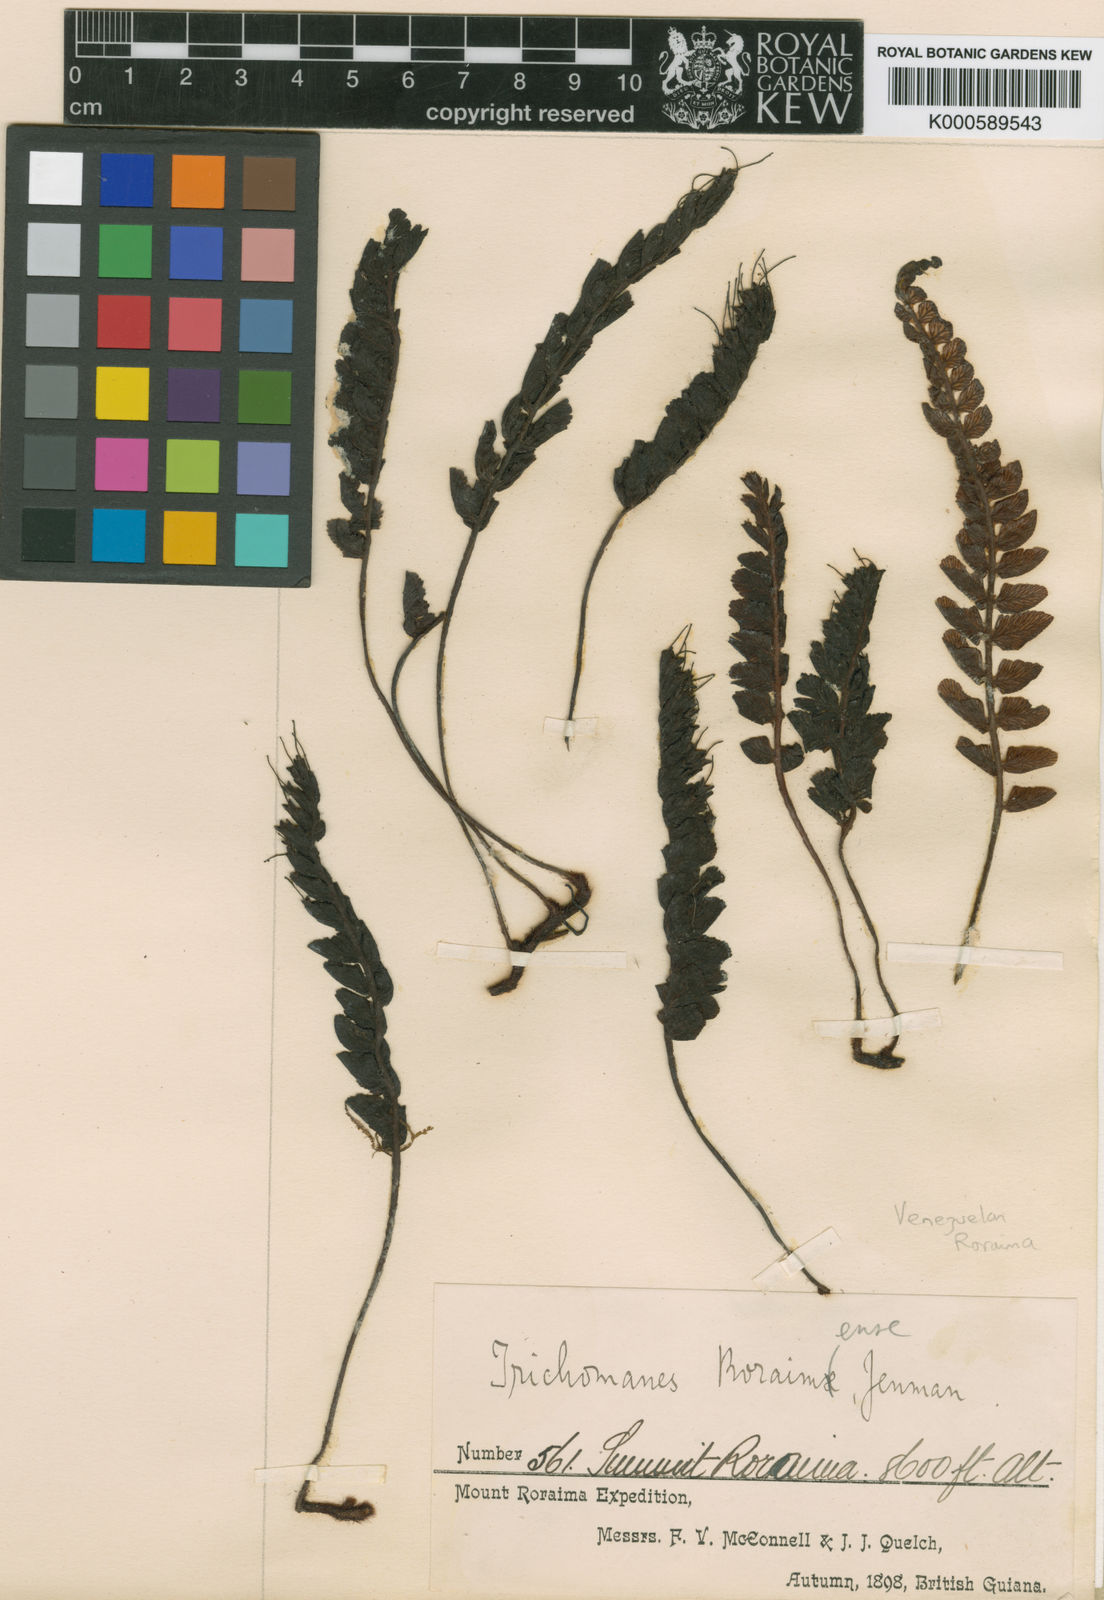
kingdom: Plantae
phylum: Tracheophyta
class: Polypodiopsida
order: Hymenophyllales
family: Hymenophyllaceae
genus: Trichomanes
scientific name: Trichomanes roraimense
